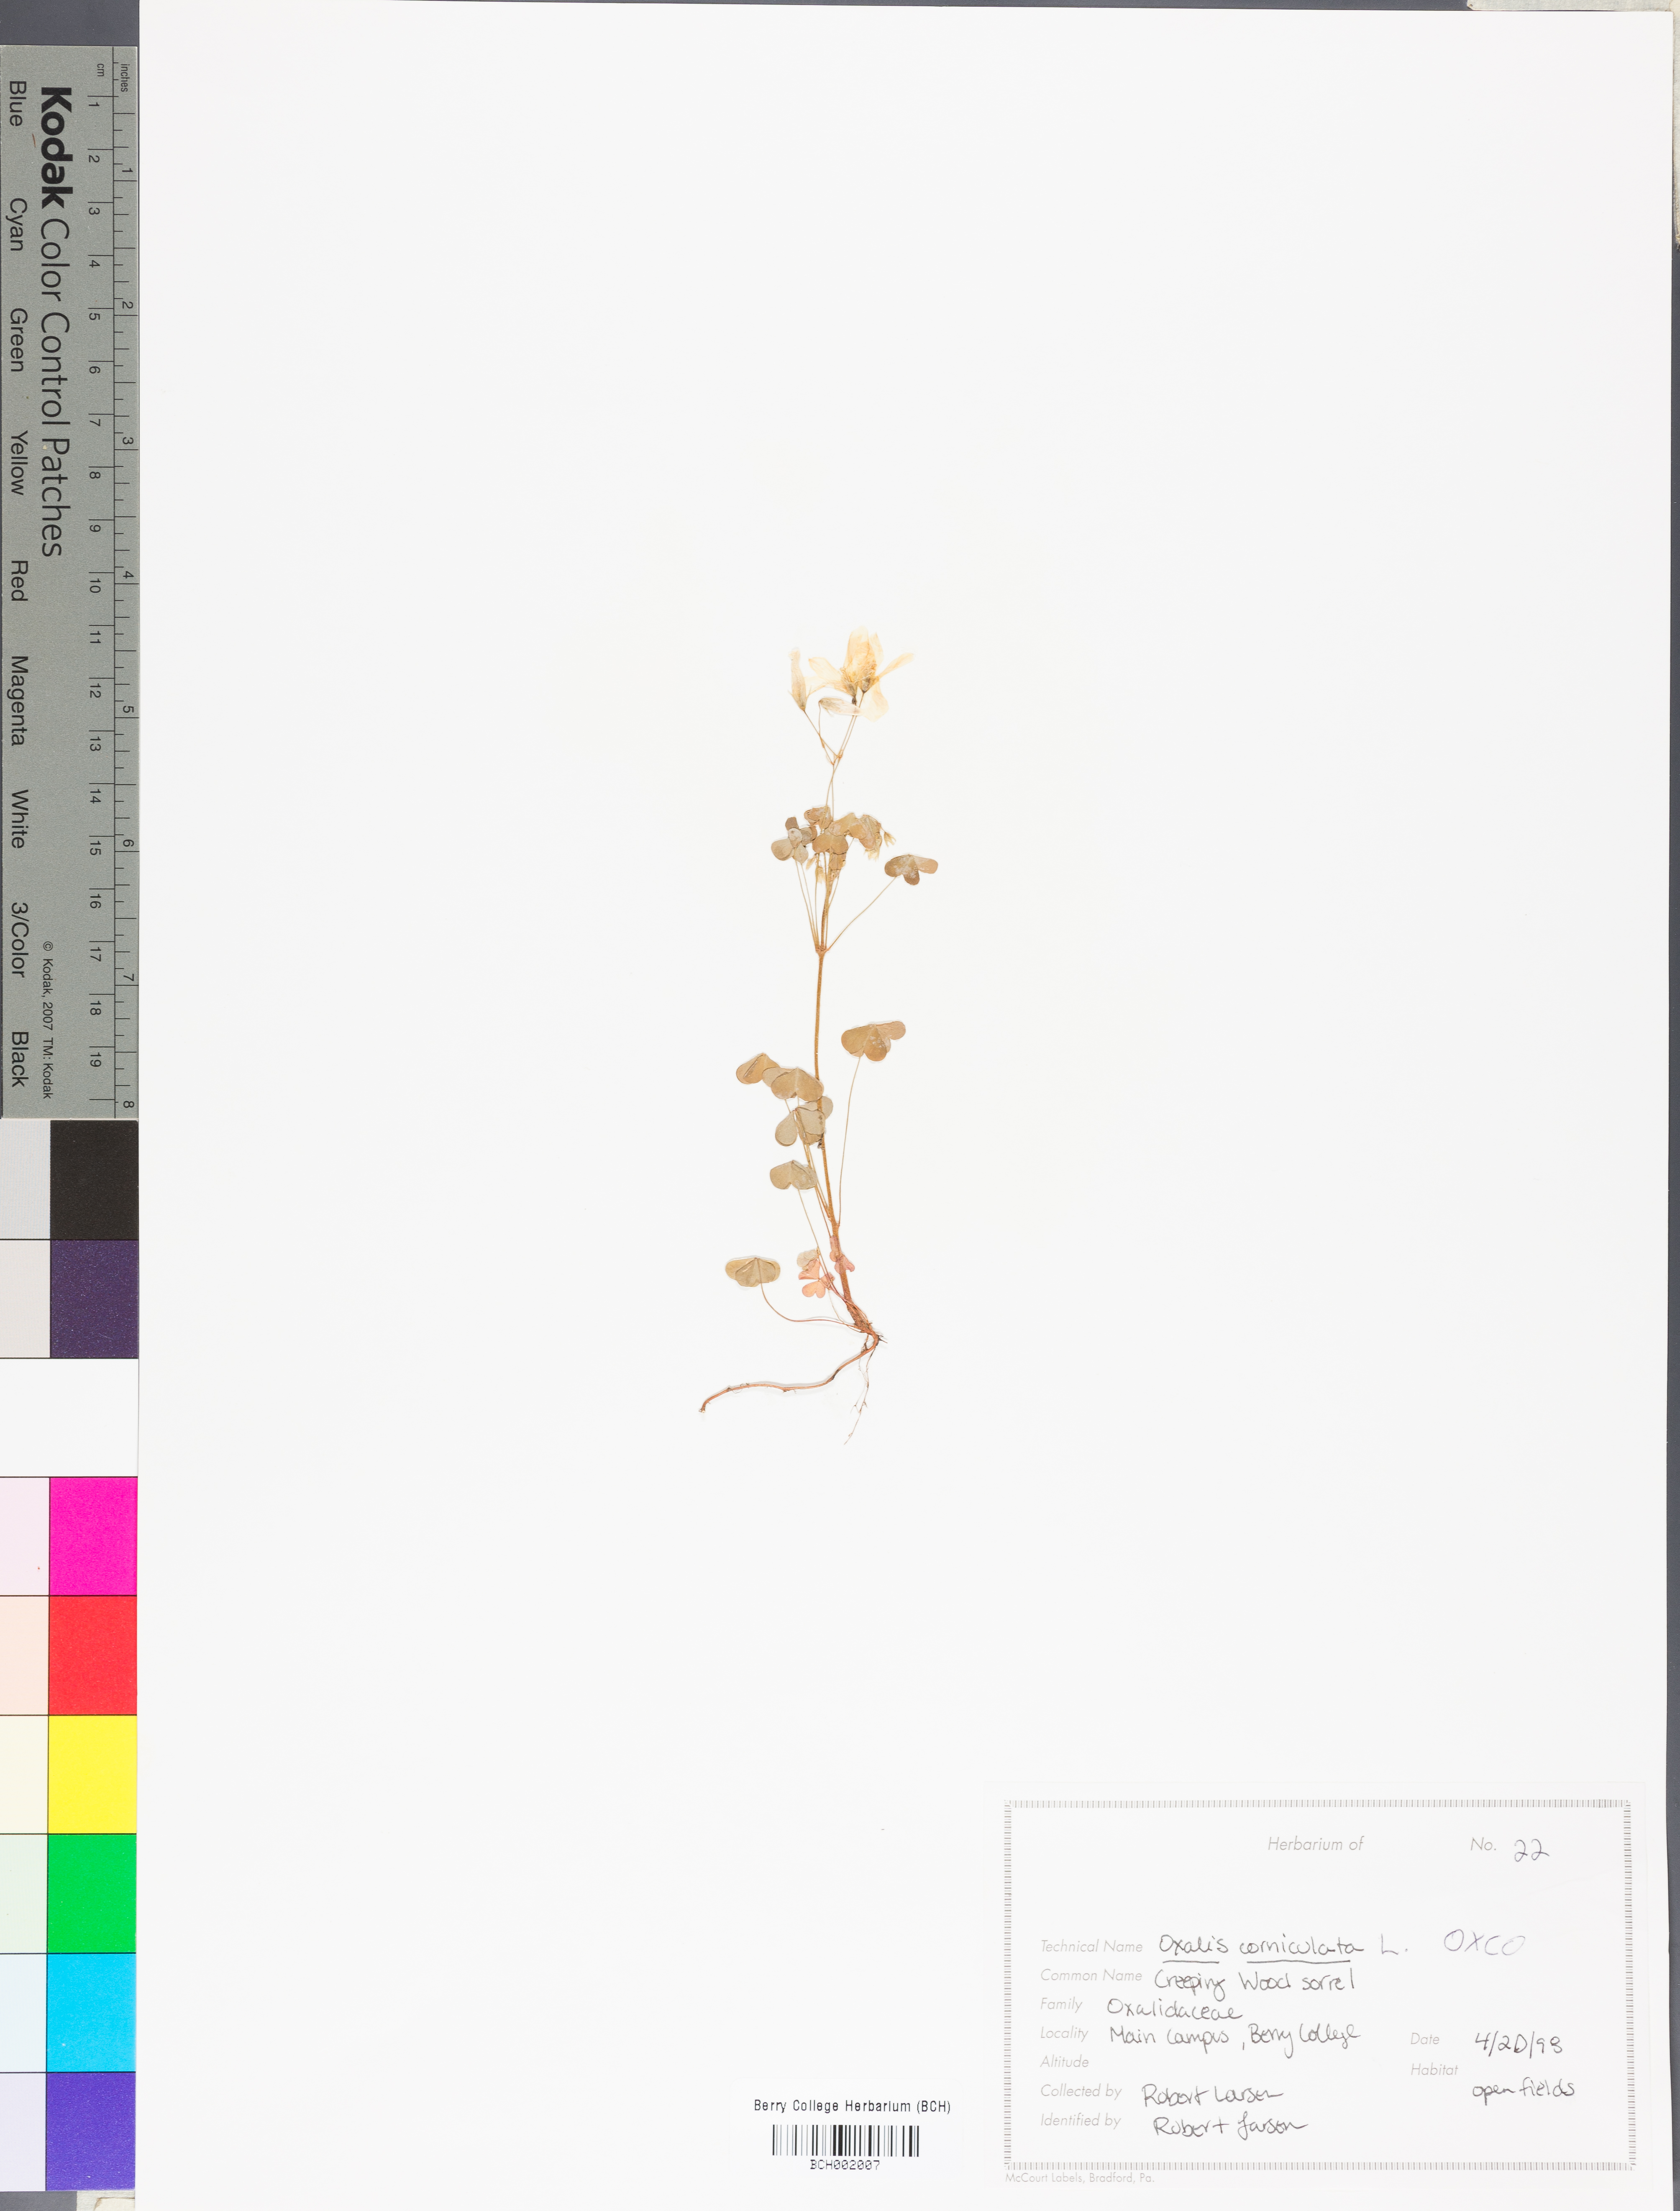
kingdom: Plantae
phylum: Tracheophyta
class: Magnoliopsida
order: Oxalidales
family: Oxalidaceae
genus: Oxalis
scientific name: Oxalis corniculata
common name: Procumbent yellow-sorrel
